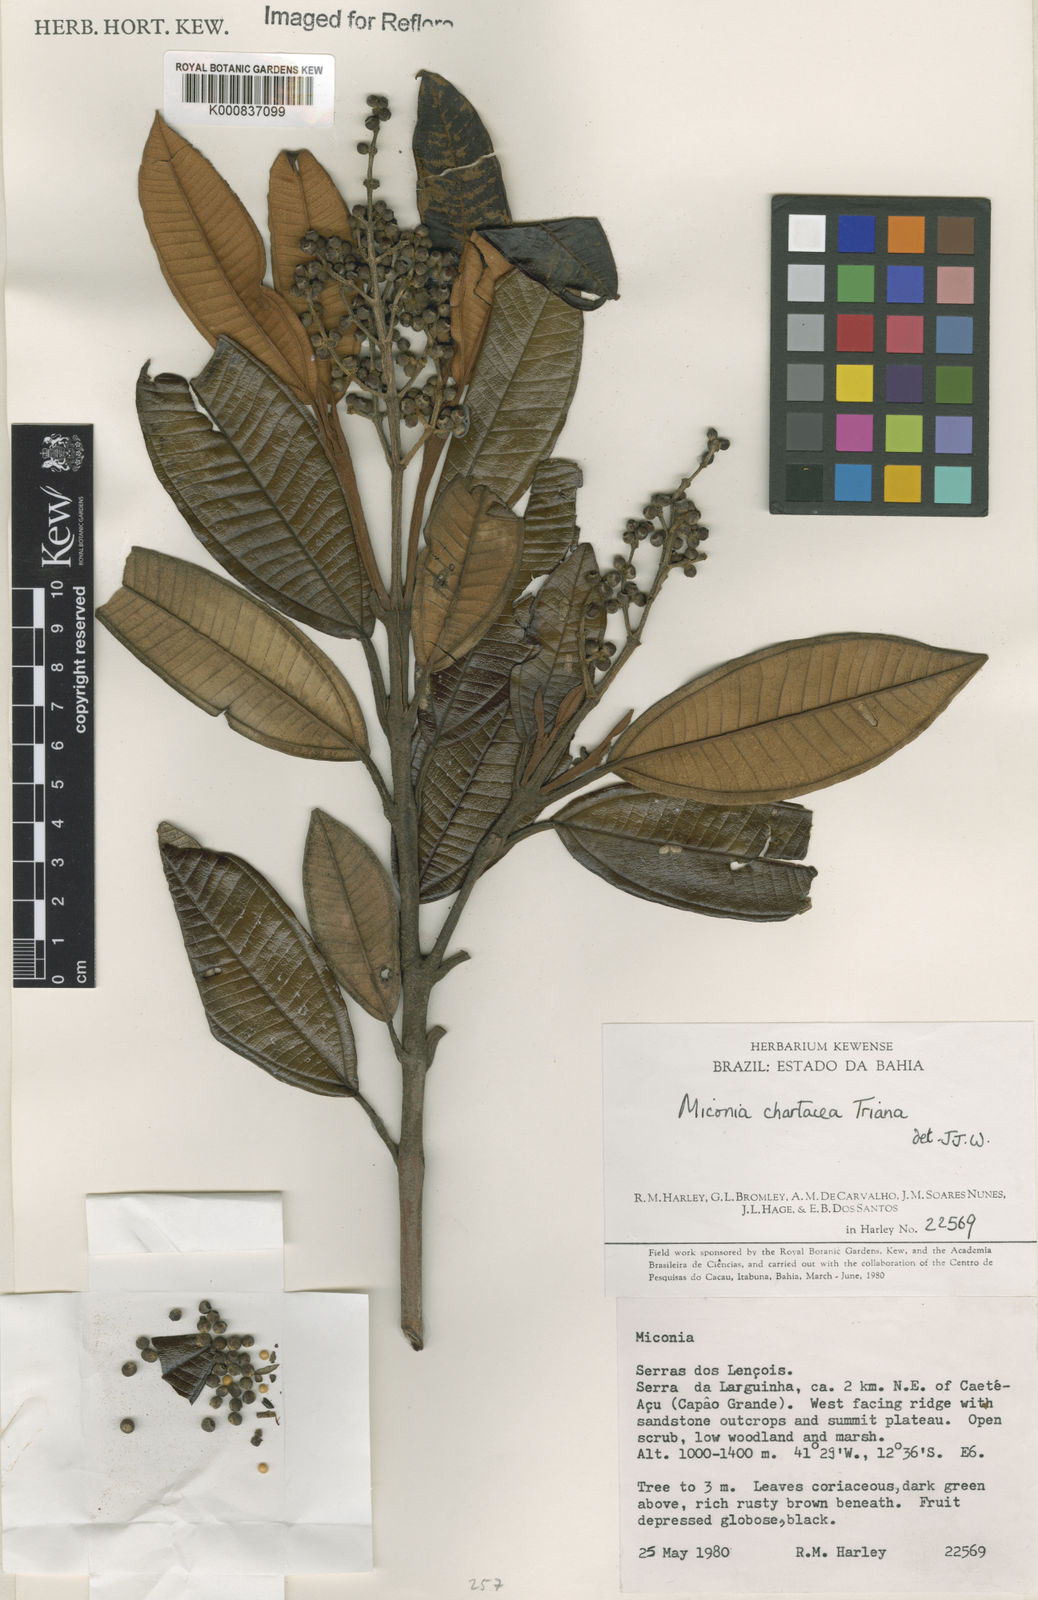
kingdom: Plantae
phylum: Tracheophyta
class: Magnoliopsida
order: Myrtales
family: Melastomataceae
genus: Miconia
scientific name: Miconia chartacea
